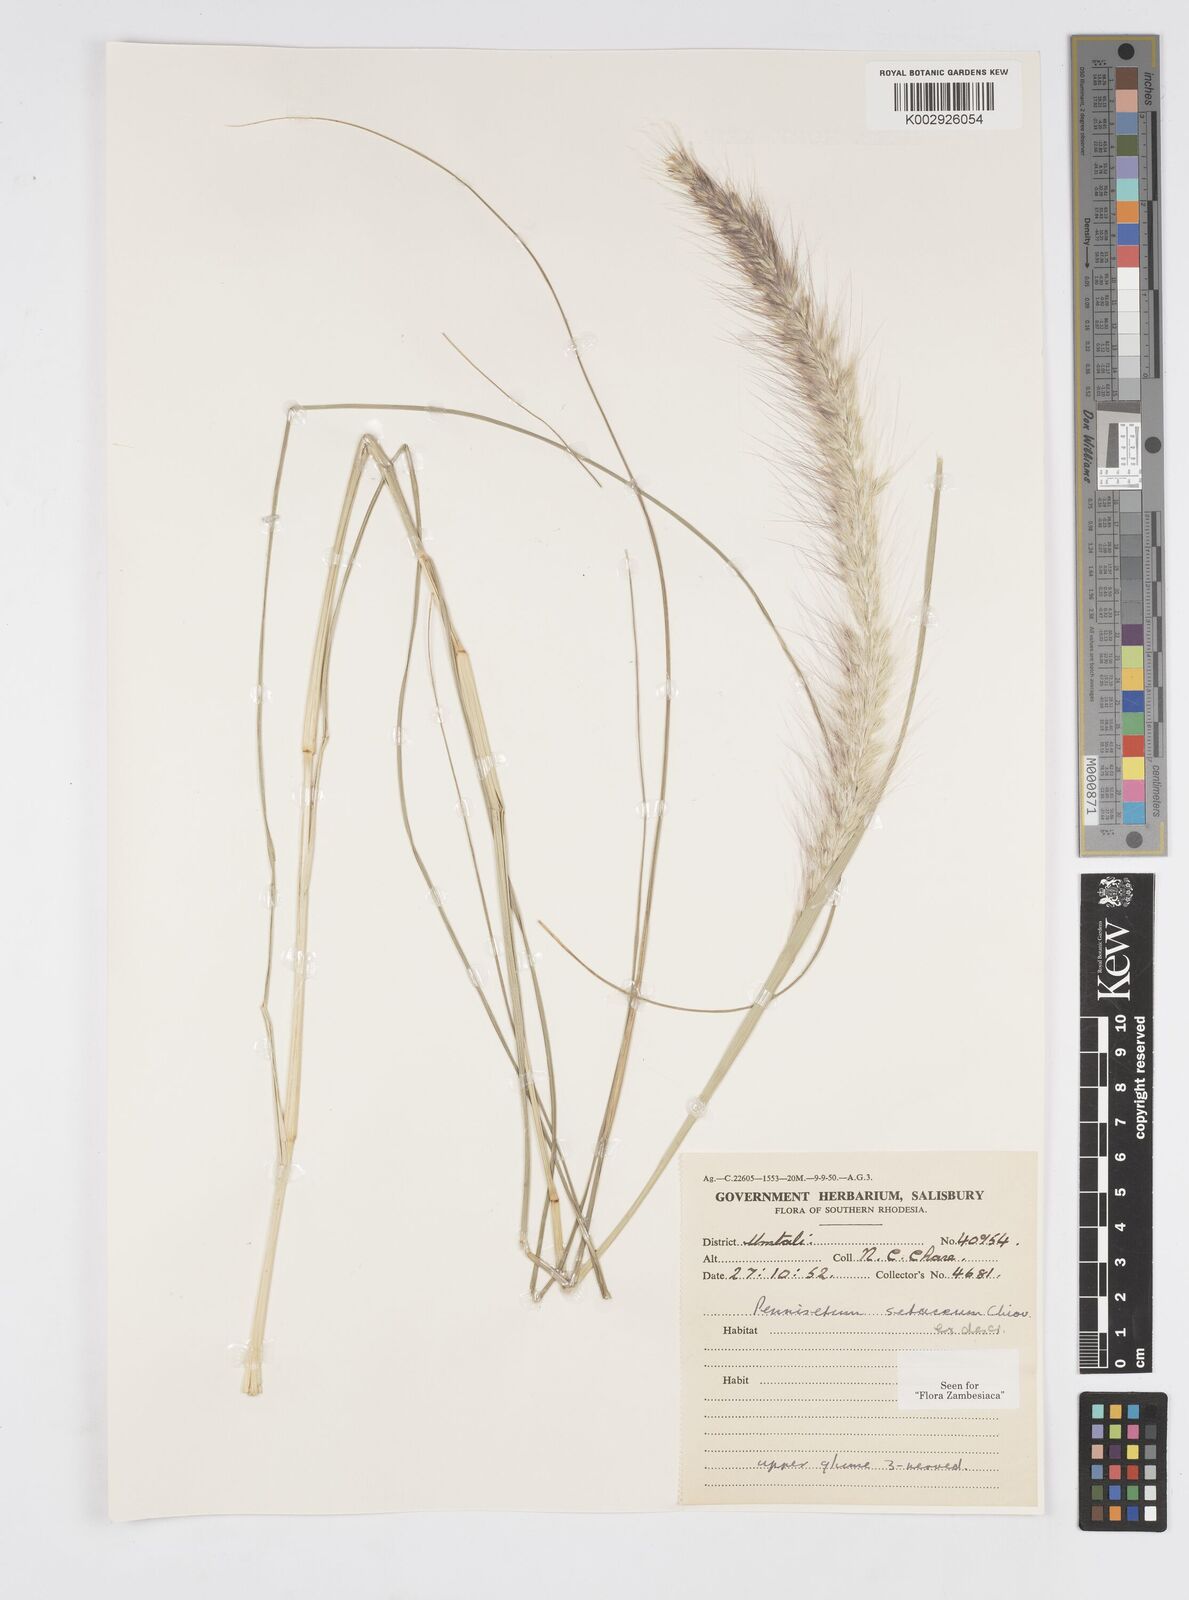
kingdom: Plantae
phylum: Tracheophyta
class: Liliopsida
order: Poales
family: Poaceae
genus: Cenchrus
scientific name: Cenchrus setaceus
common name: Crimson fountaingrass
